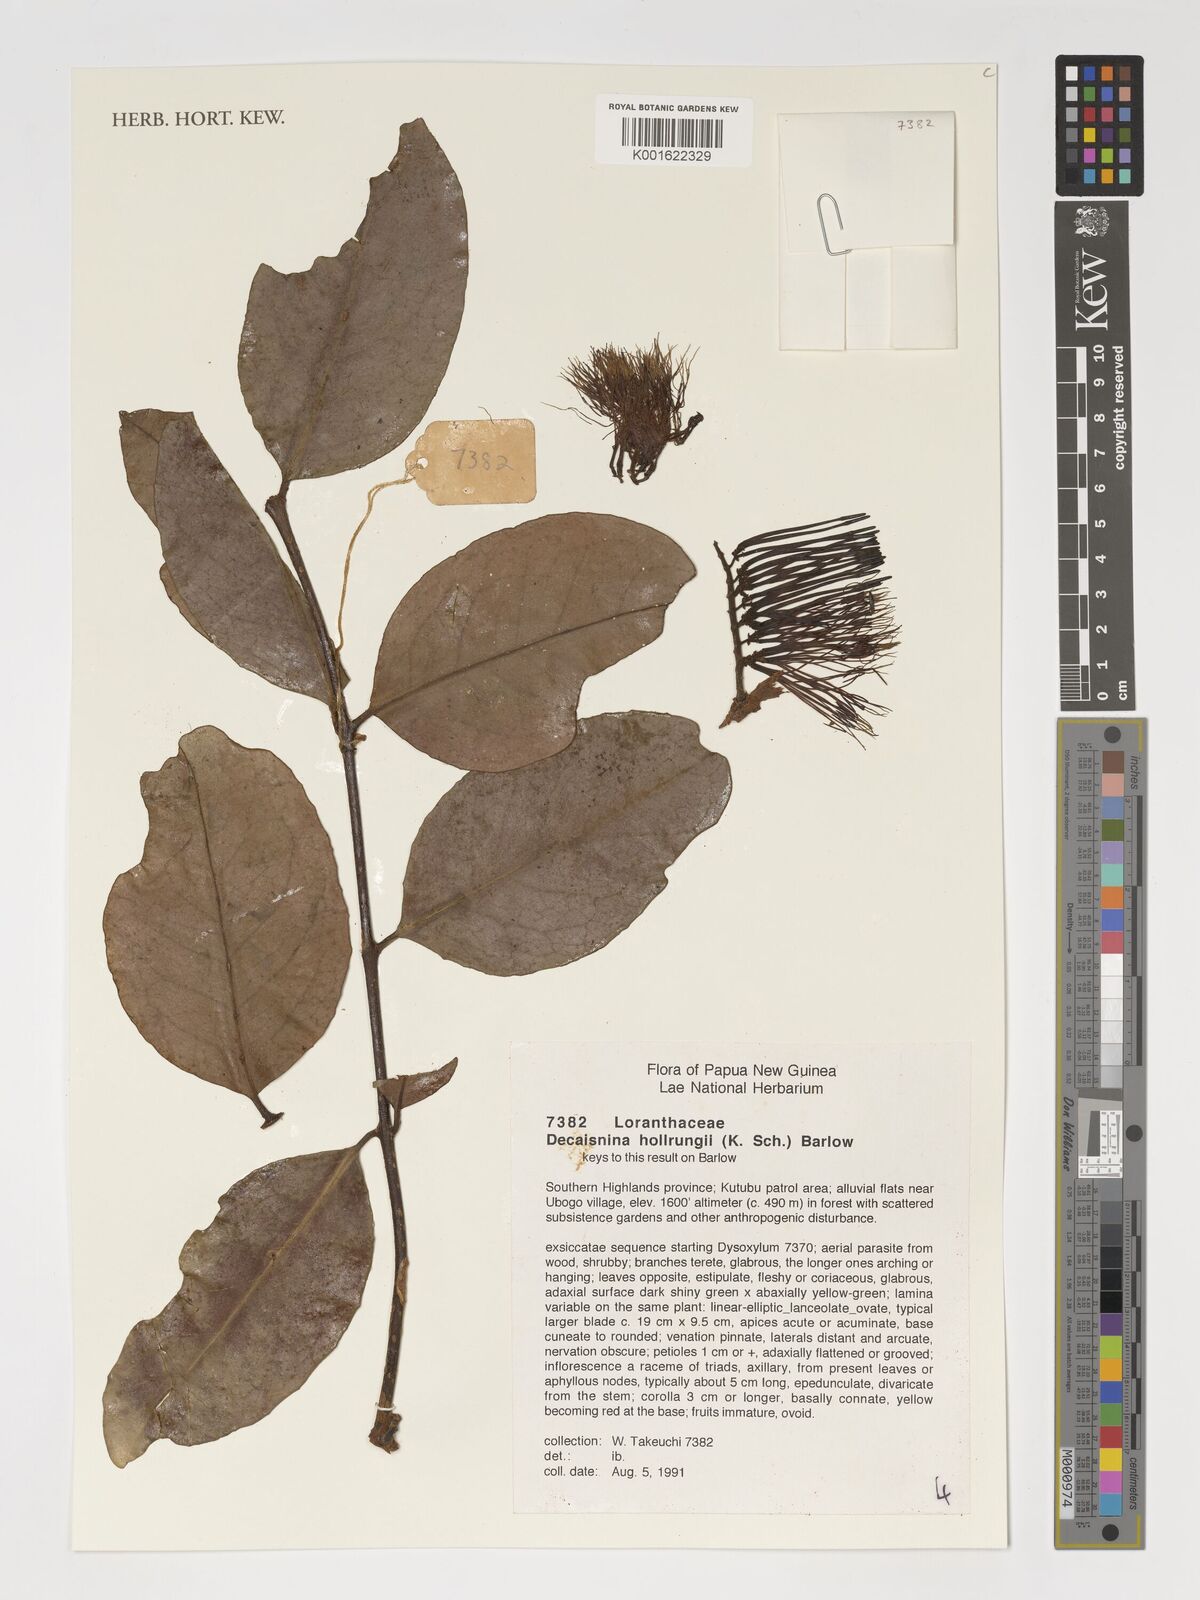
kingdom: Plantae
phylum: Tracheophyta
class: Magnoliopsida
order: Santalales
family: Loranthaceae
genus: Decaisnina
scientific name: Decaisnina hollrungii
